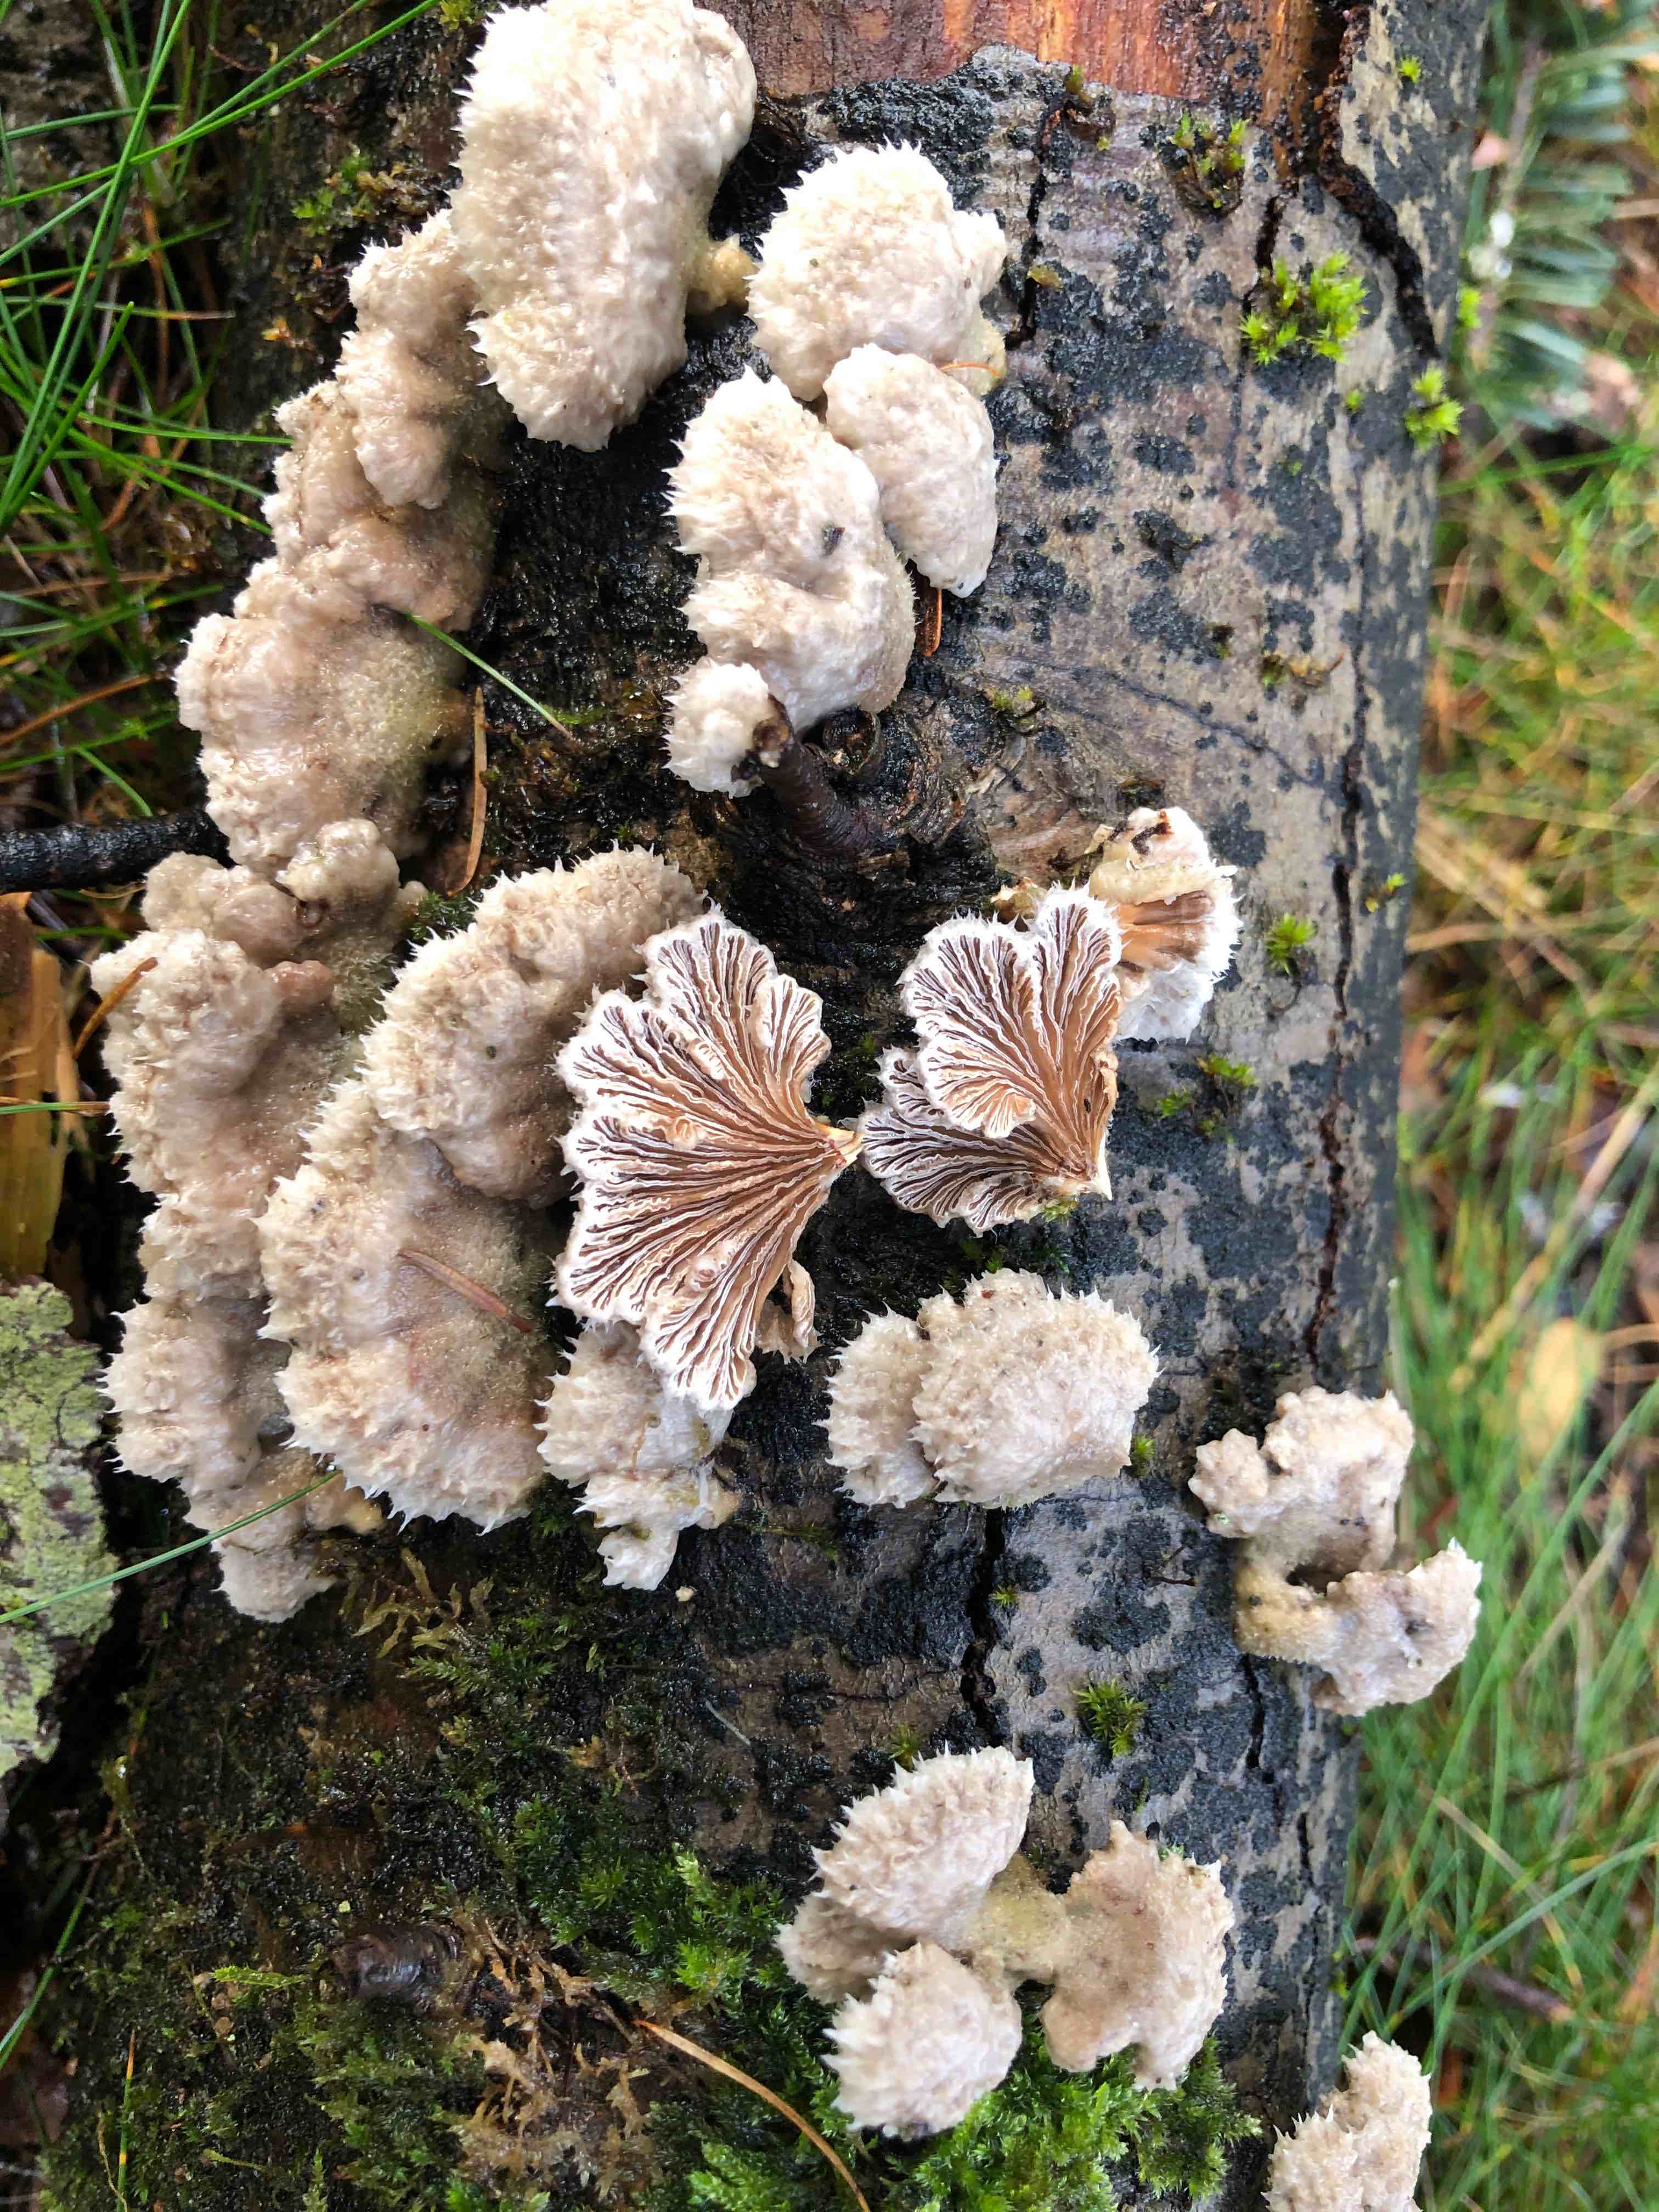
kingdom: Fungi
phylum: Basidiomycota
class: Agaricomycetes
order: Agaricales
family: Schizophyllaceae
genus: Schizophyllum
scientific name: Schizophyllum commune
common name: kløvblad
